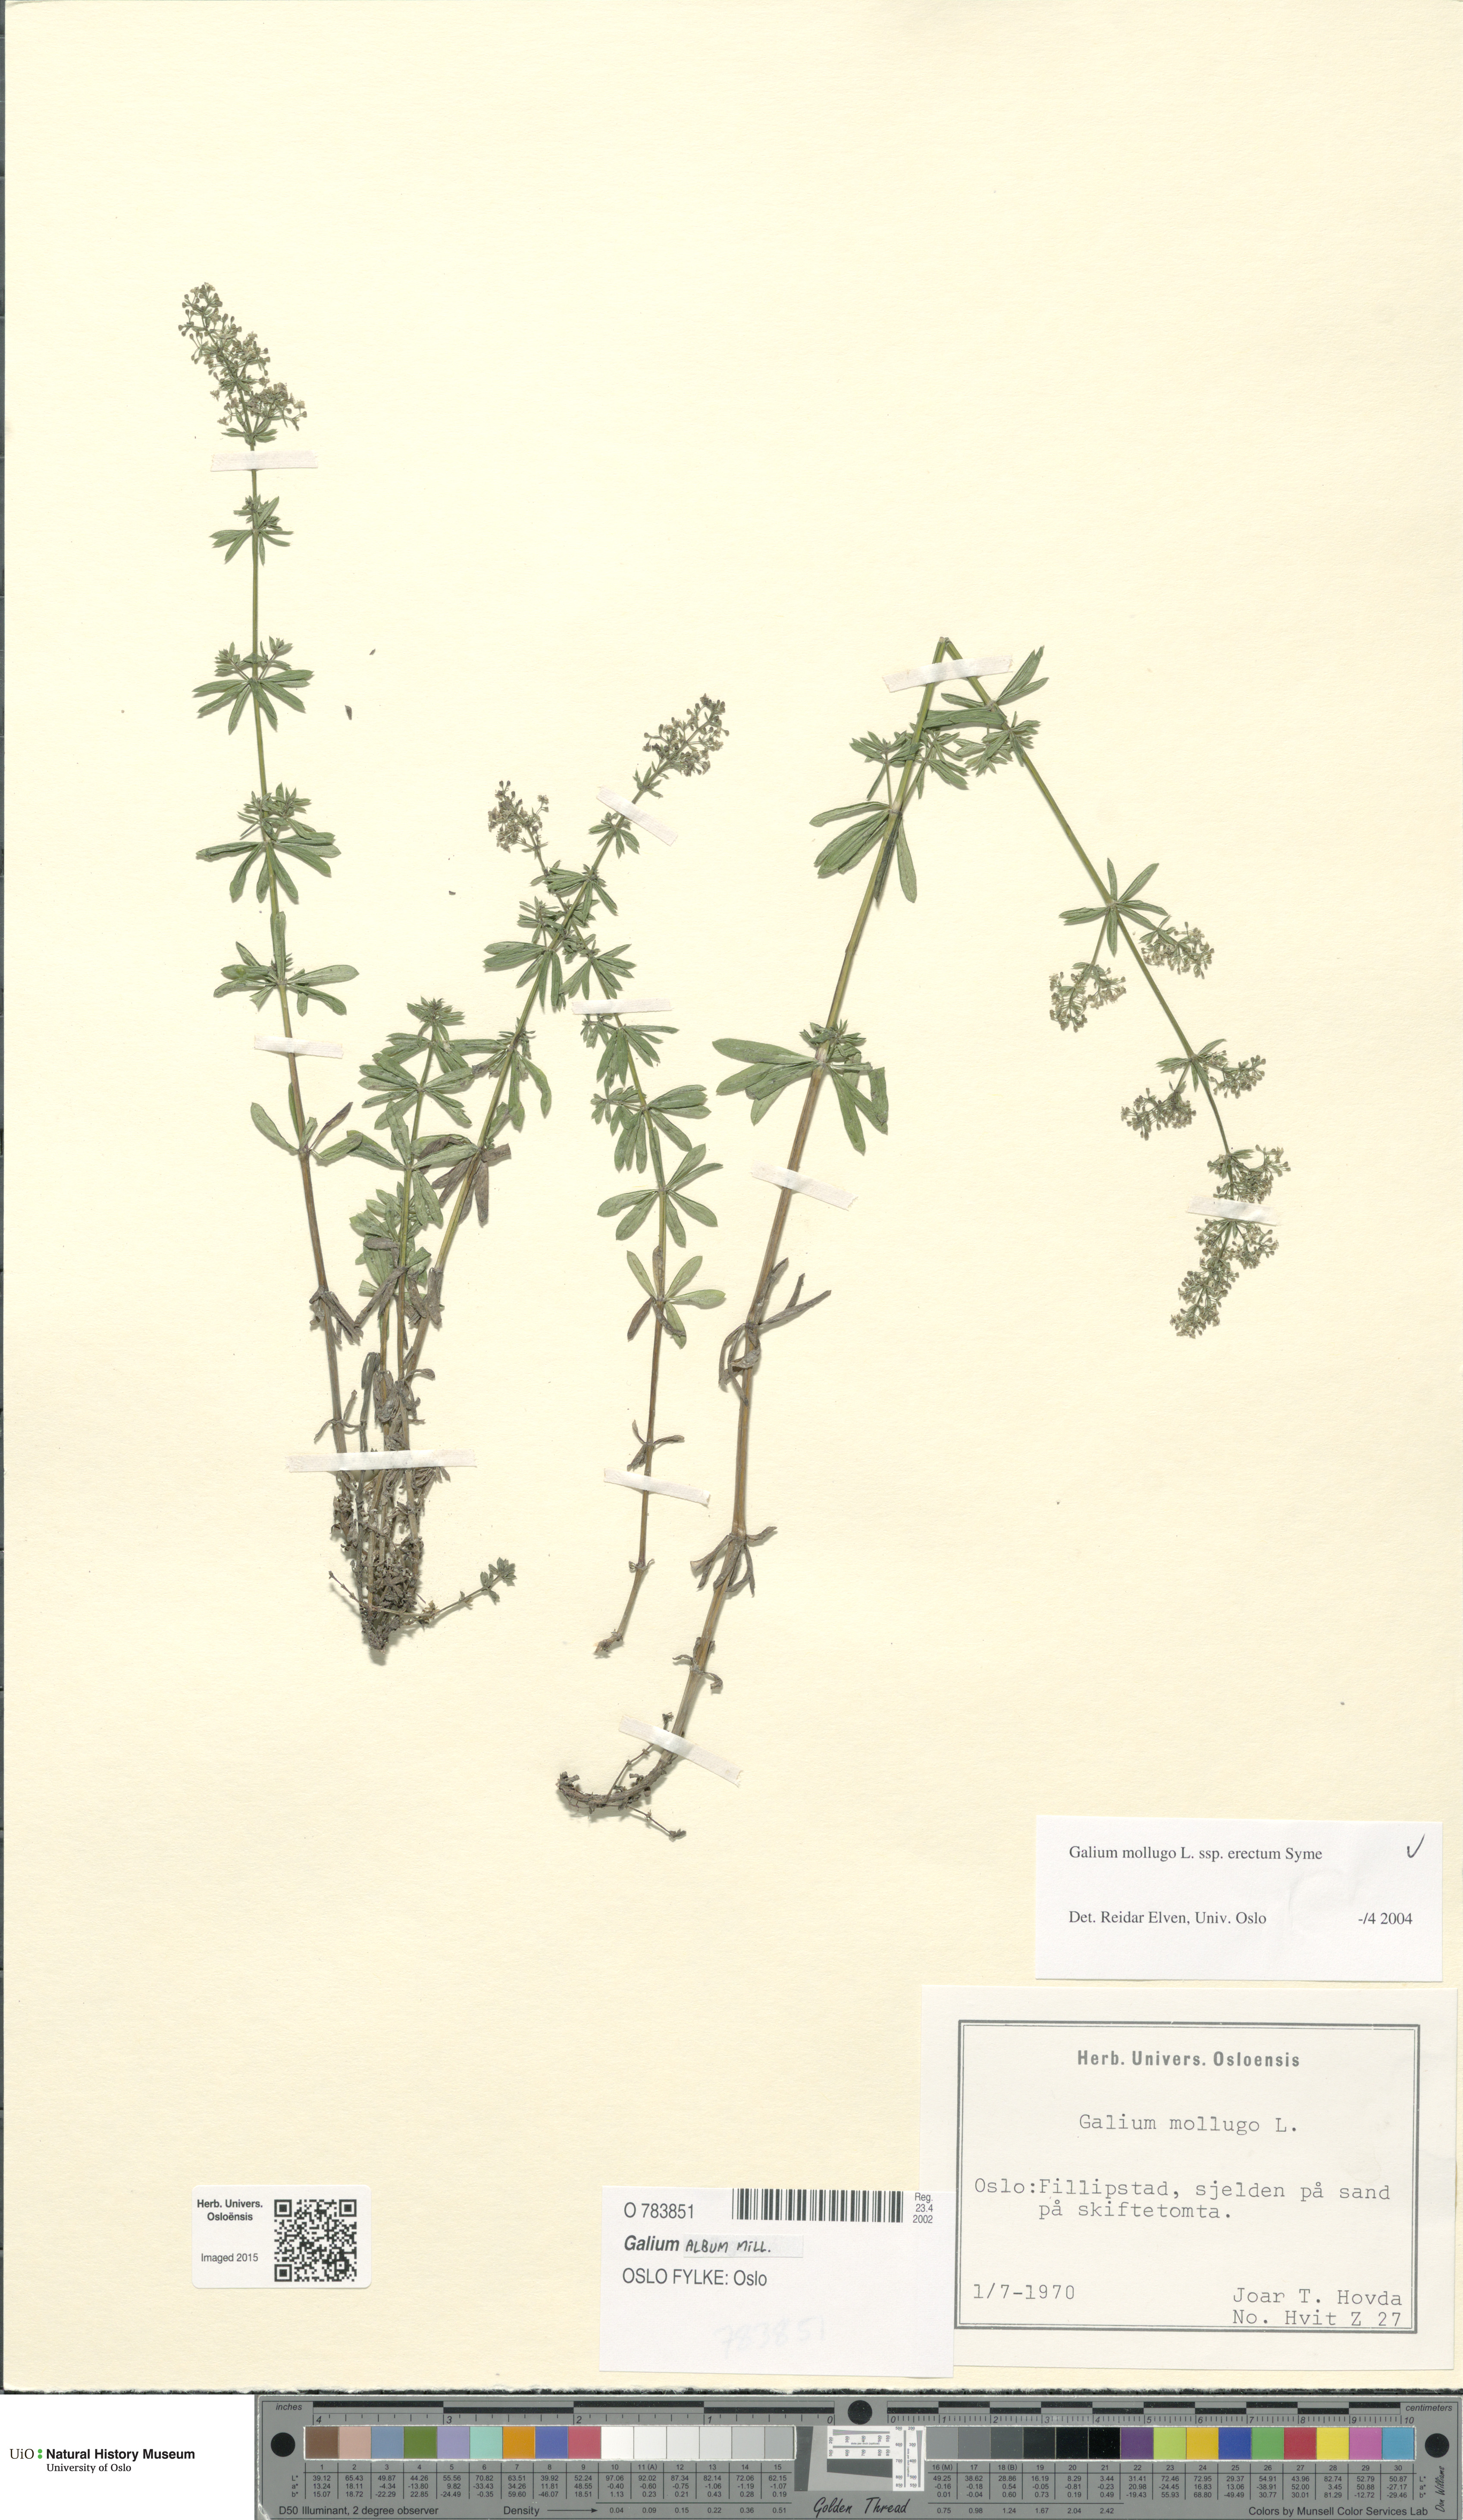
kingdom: Plantae
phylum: Tracheophyta
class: Magnoliopsida
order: Gentianales
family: Rubiaceae
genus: Galium
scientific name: Galium album
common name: White bedstraw
